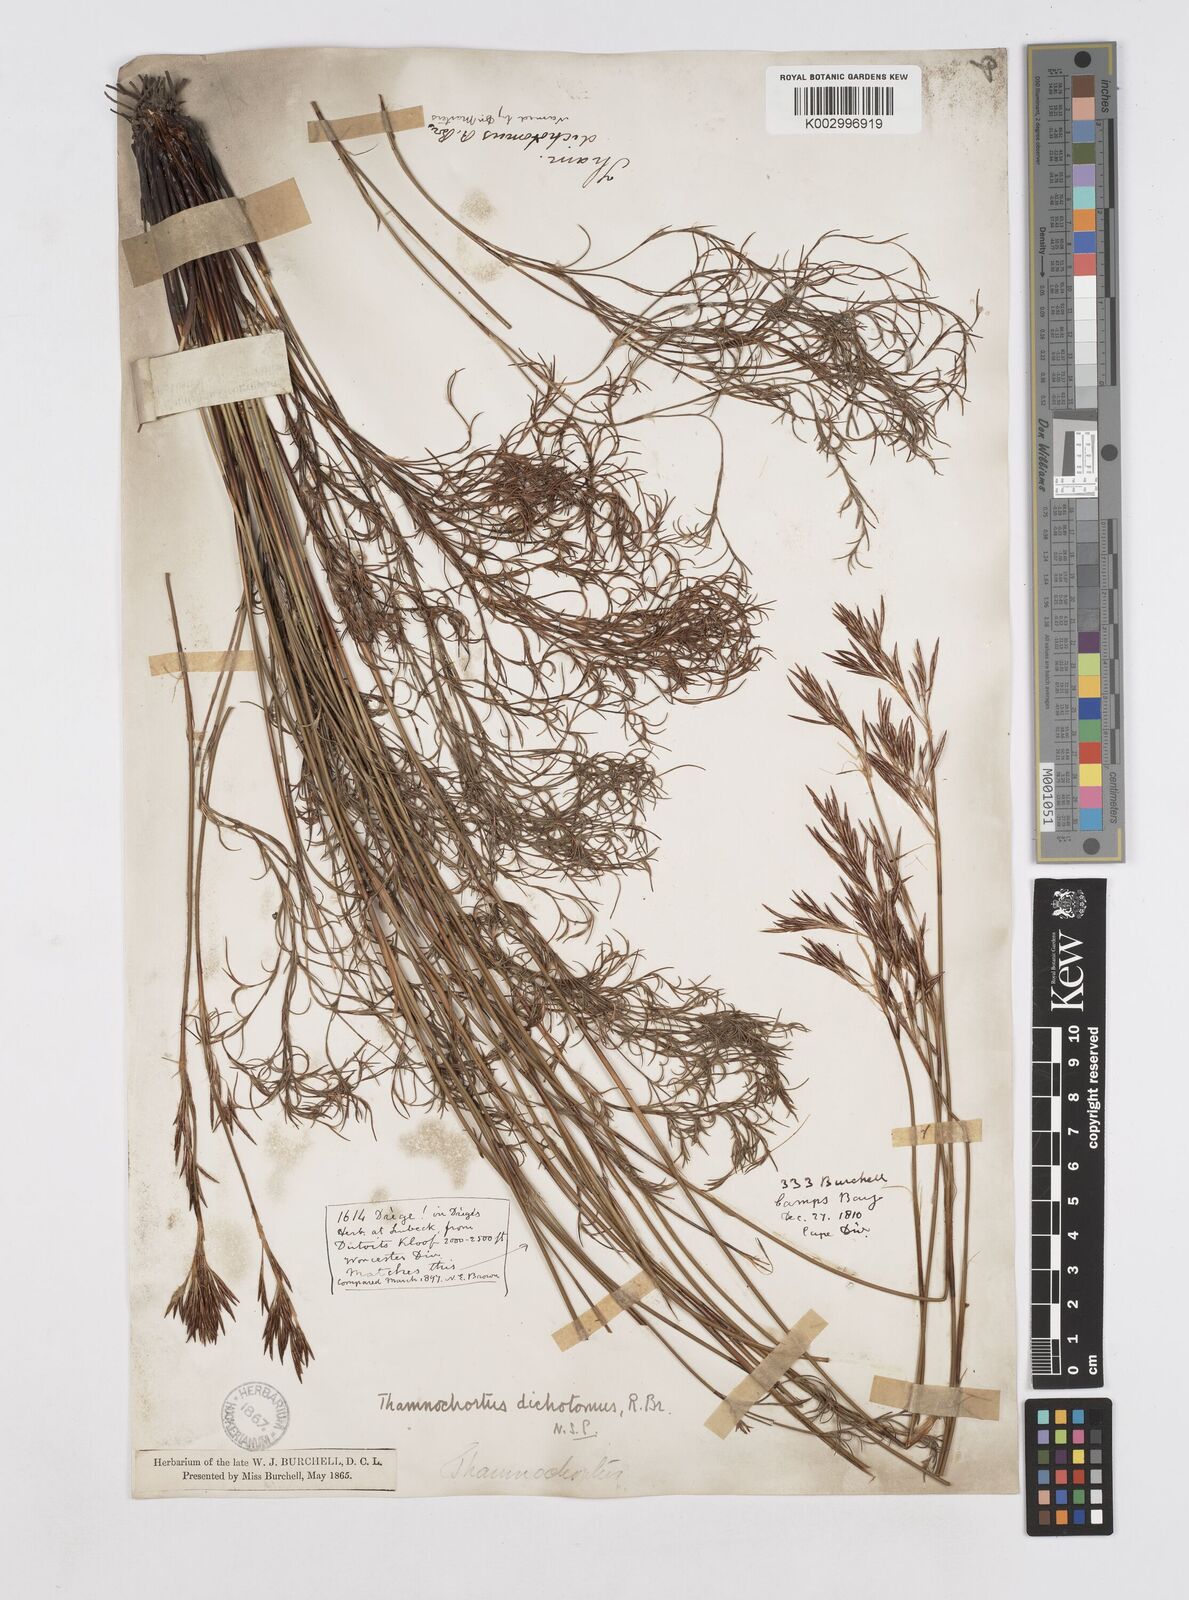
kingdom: Plantae
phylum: Tracheophyta
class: Liliopsida
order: Poales
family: Restionaceae
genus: Thamnochortus
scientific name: Thamnochortus lucens
